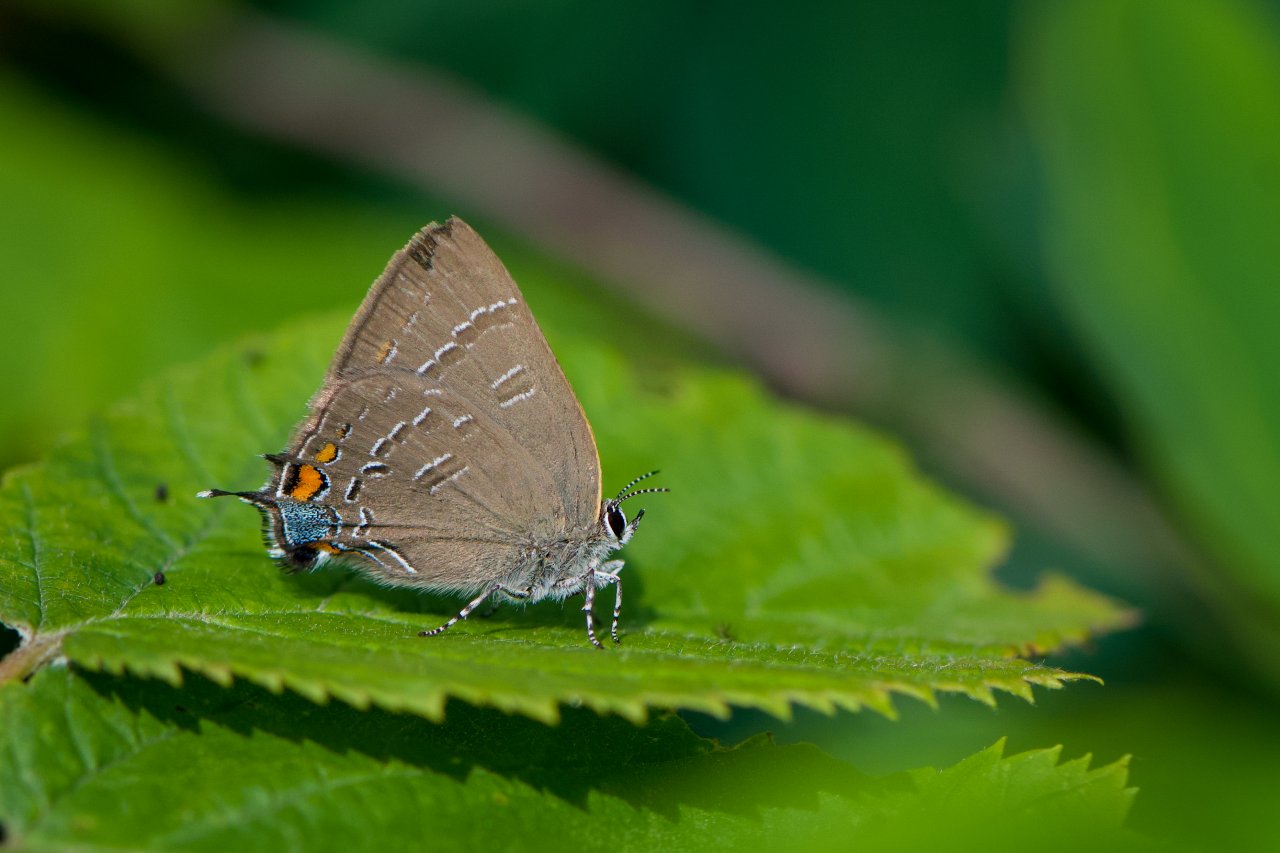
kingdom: Animalia
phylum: Arthropoda
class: Insecta
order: Lepidoptera
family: Lycaenidae
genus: Satyrium
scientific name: Satyrium calanus
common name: Banded Hairstreak
